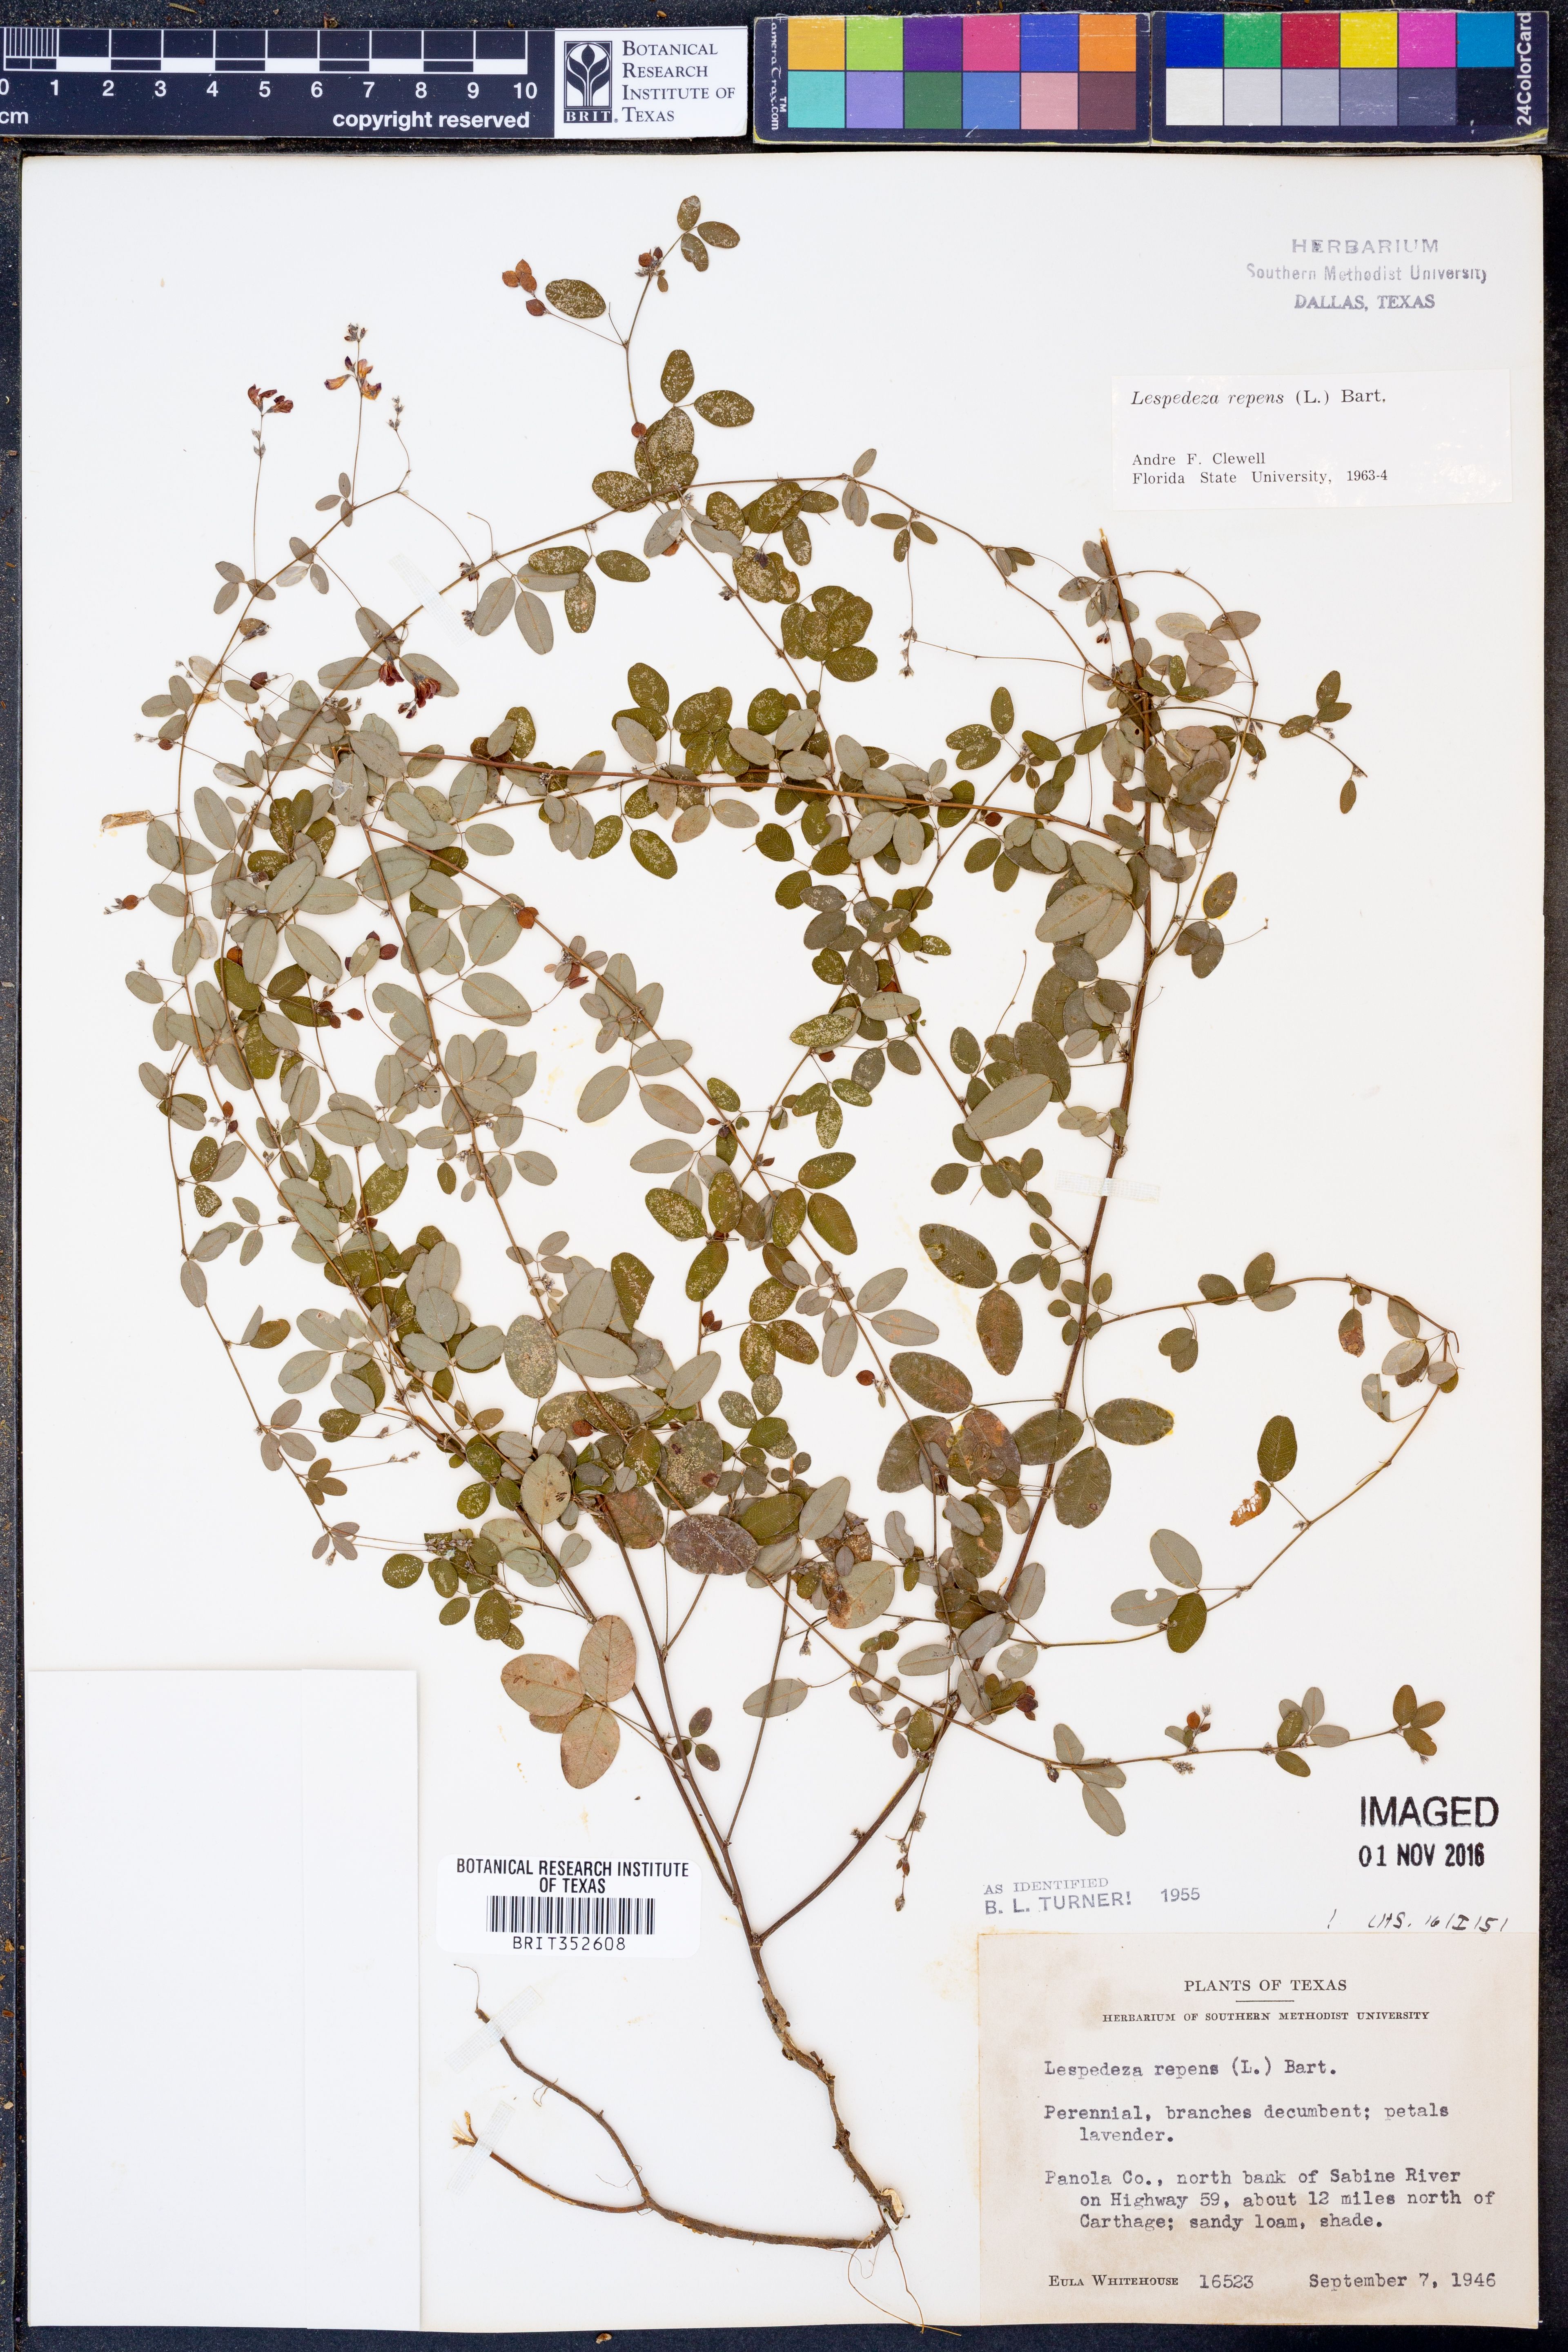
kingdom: Plantae
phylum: Tracheophyta
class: Magnoliopsida
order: Fabales
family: Fabaceae
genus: Lespedeza
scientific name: Lespedeza repens
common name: Creeping bush-clover
